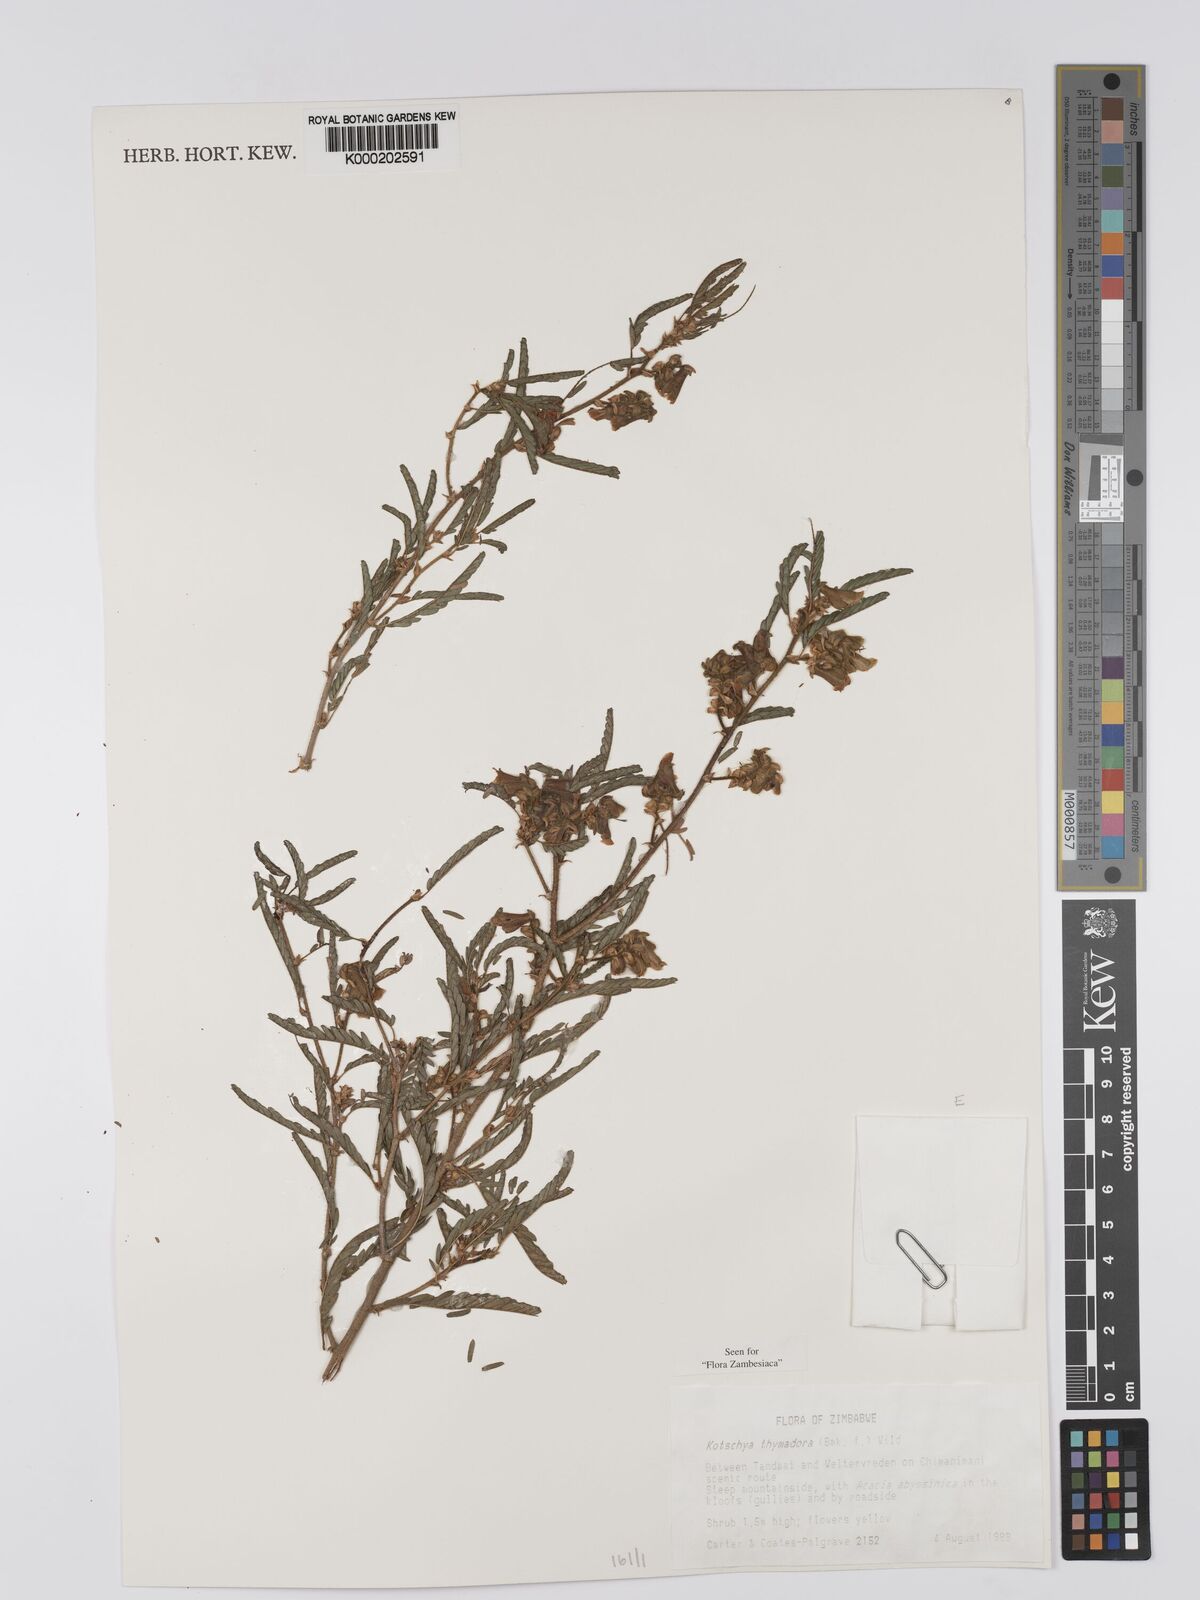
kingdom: Plantae
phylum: Tracheophyta
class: Magnoliopsida
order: Fabales
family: Fabaceae
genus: Kotschya
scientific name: Kotschya thymodora
